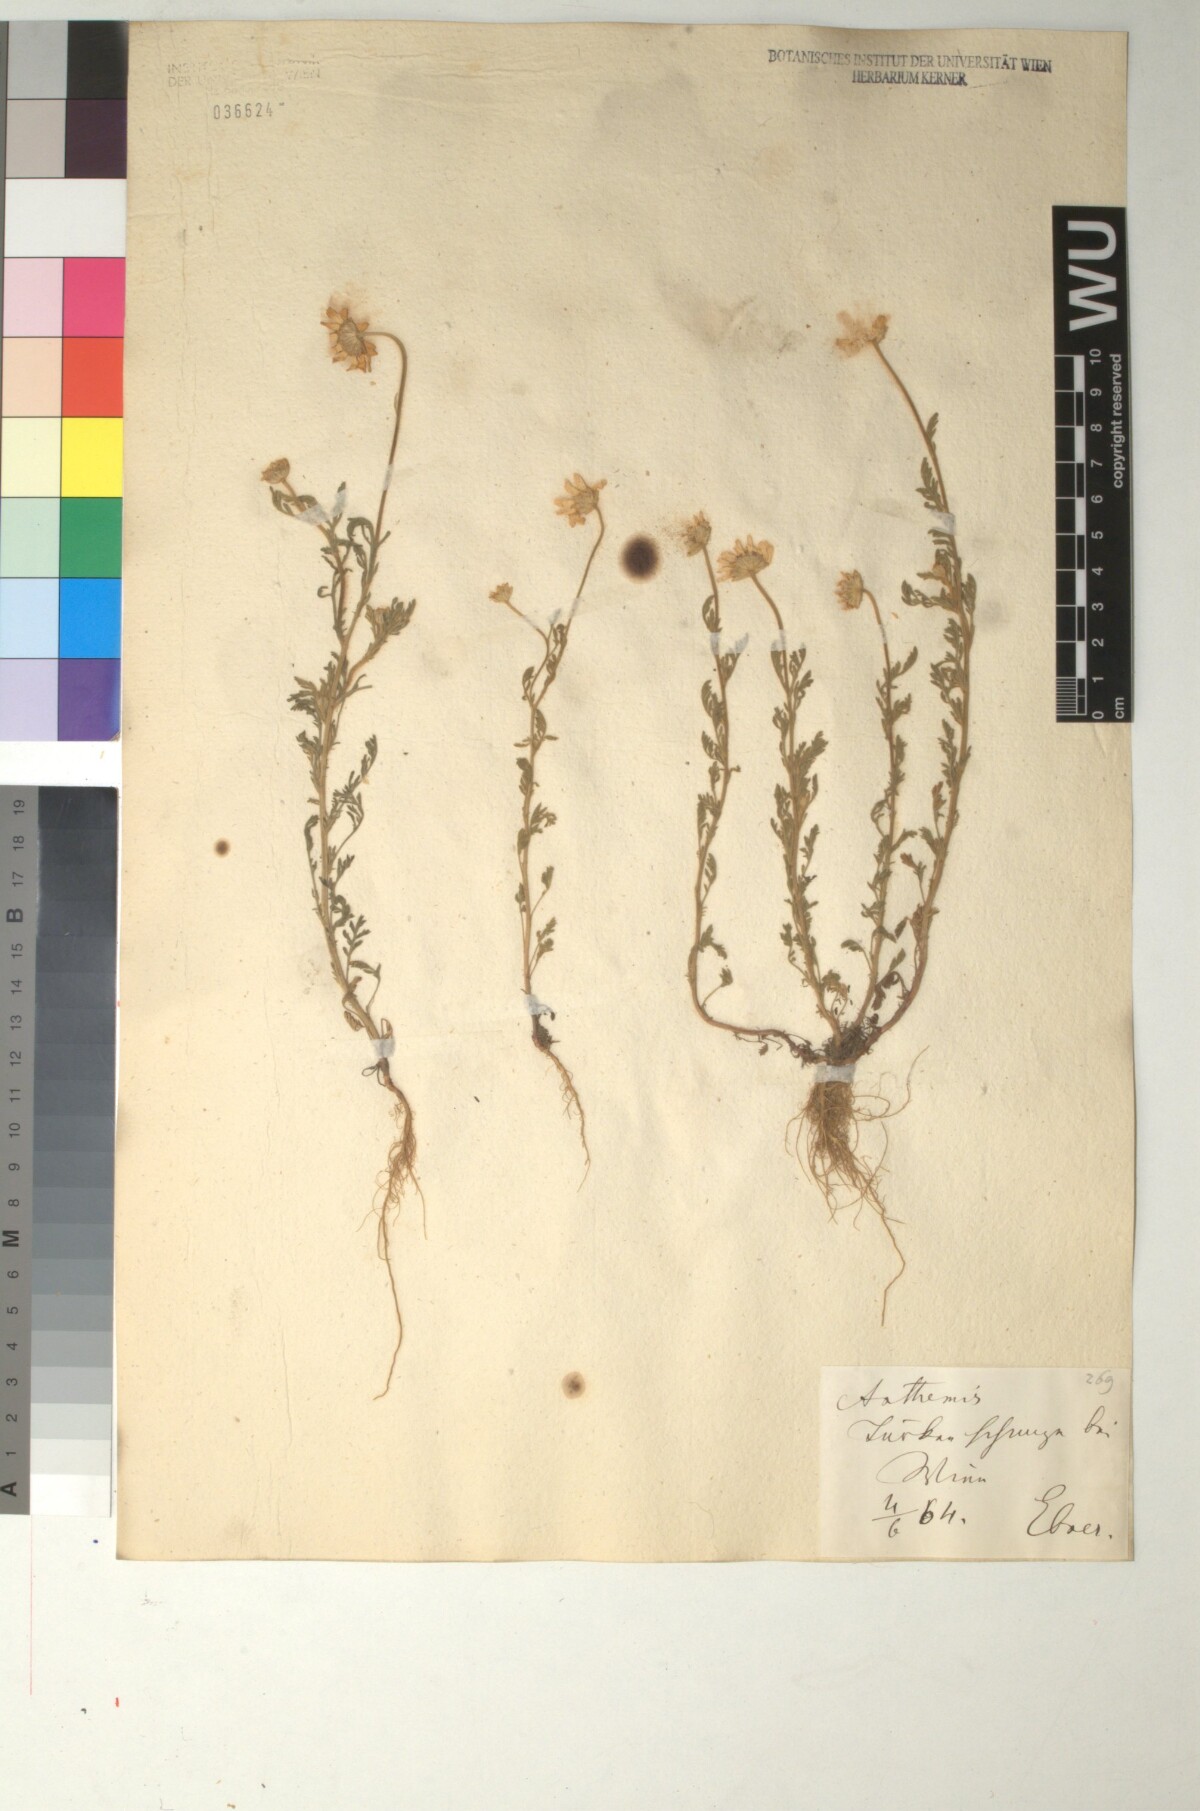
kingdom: Plantae
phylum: Tracheophyta
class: Magnoliopsida
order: Asterales
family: Asteraceae
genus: Anthemis
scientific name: Anthemis ruthenica
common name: Eastern chamomile
